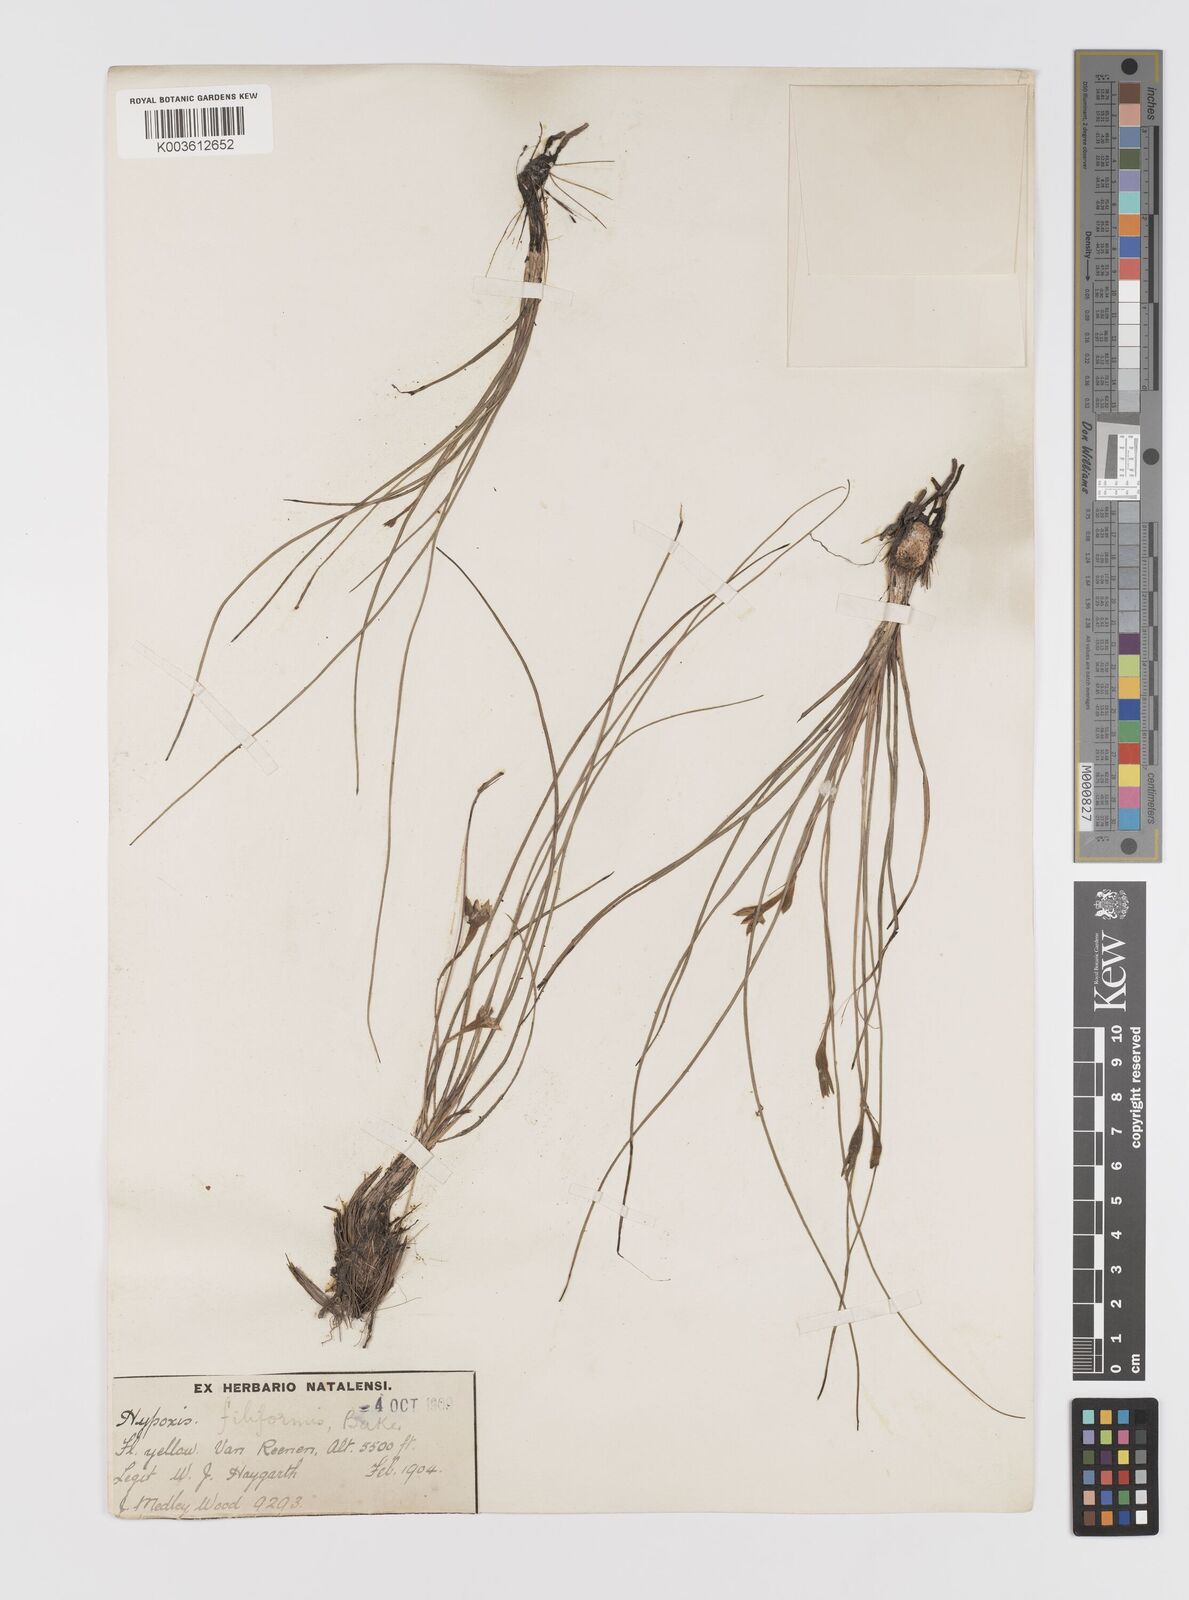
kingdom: Plantae
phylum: Tracheophyta
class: Liliopsida
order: Asparagales
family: Hypoxidaceae
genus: Hypoxis
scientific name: Hypoxis filiformis
